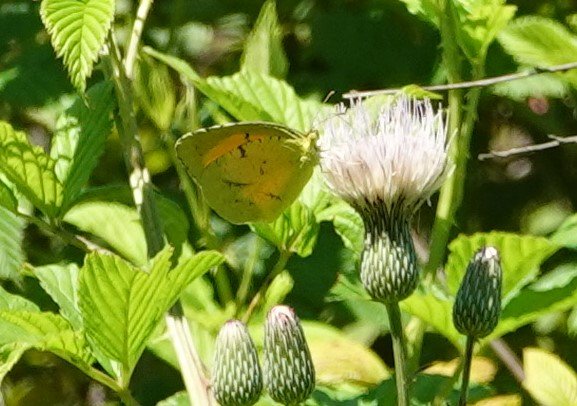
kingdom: Animalia
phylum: Arthropoda
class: Insecta
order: Lepidoptera
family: Pieridae
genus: Abaeis
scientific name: Abaeis nicippe
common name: Sleepy Orange
